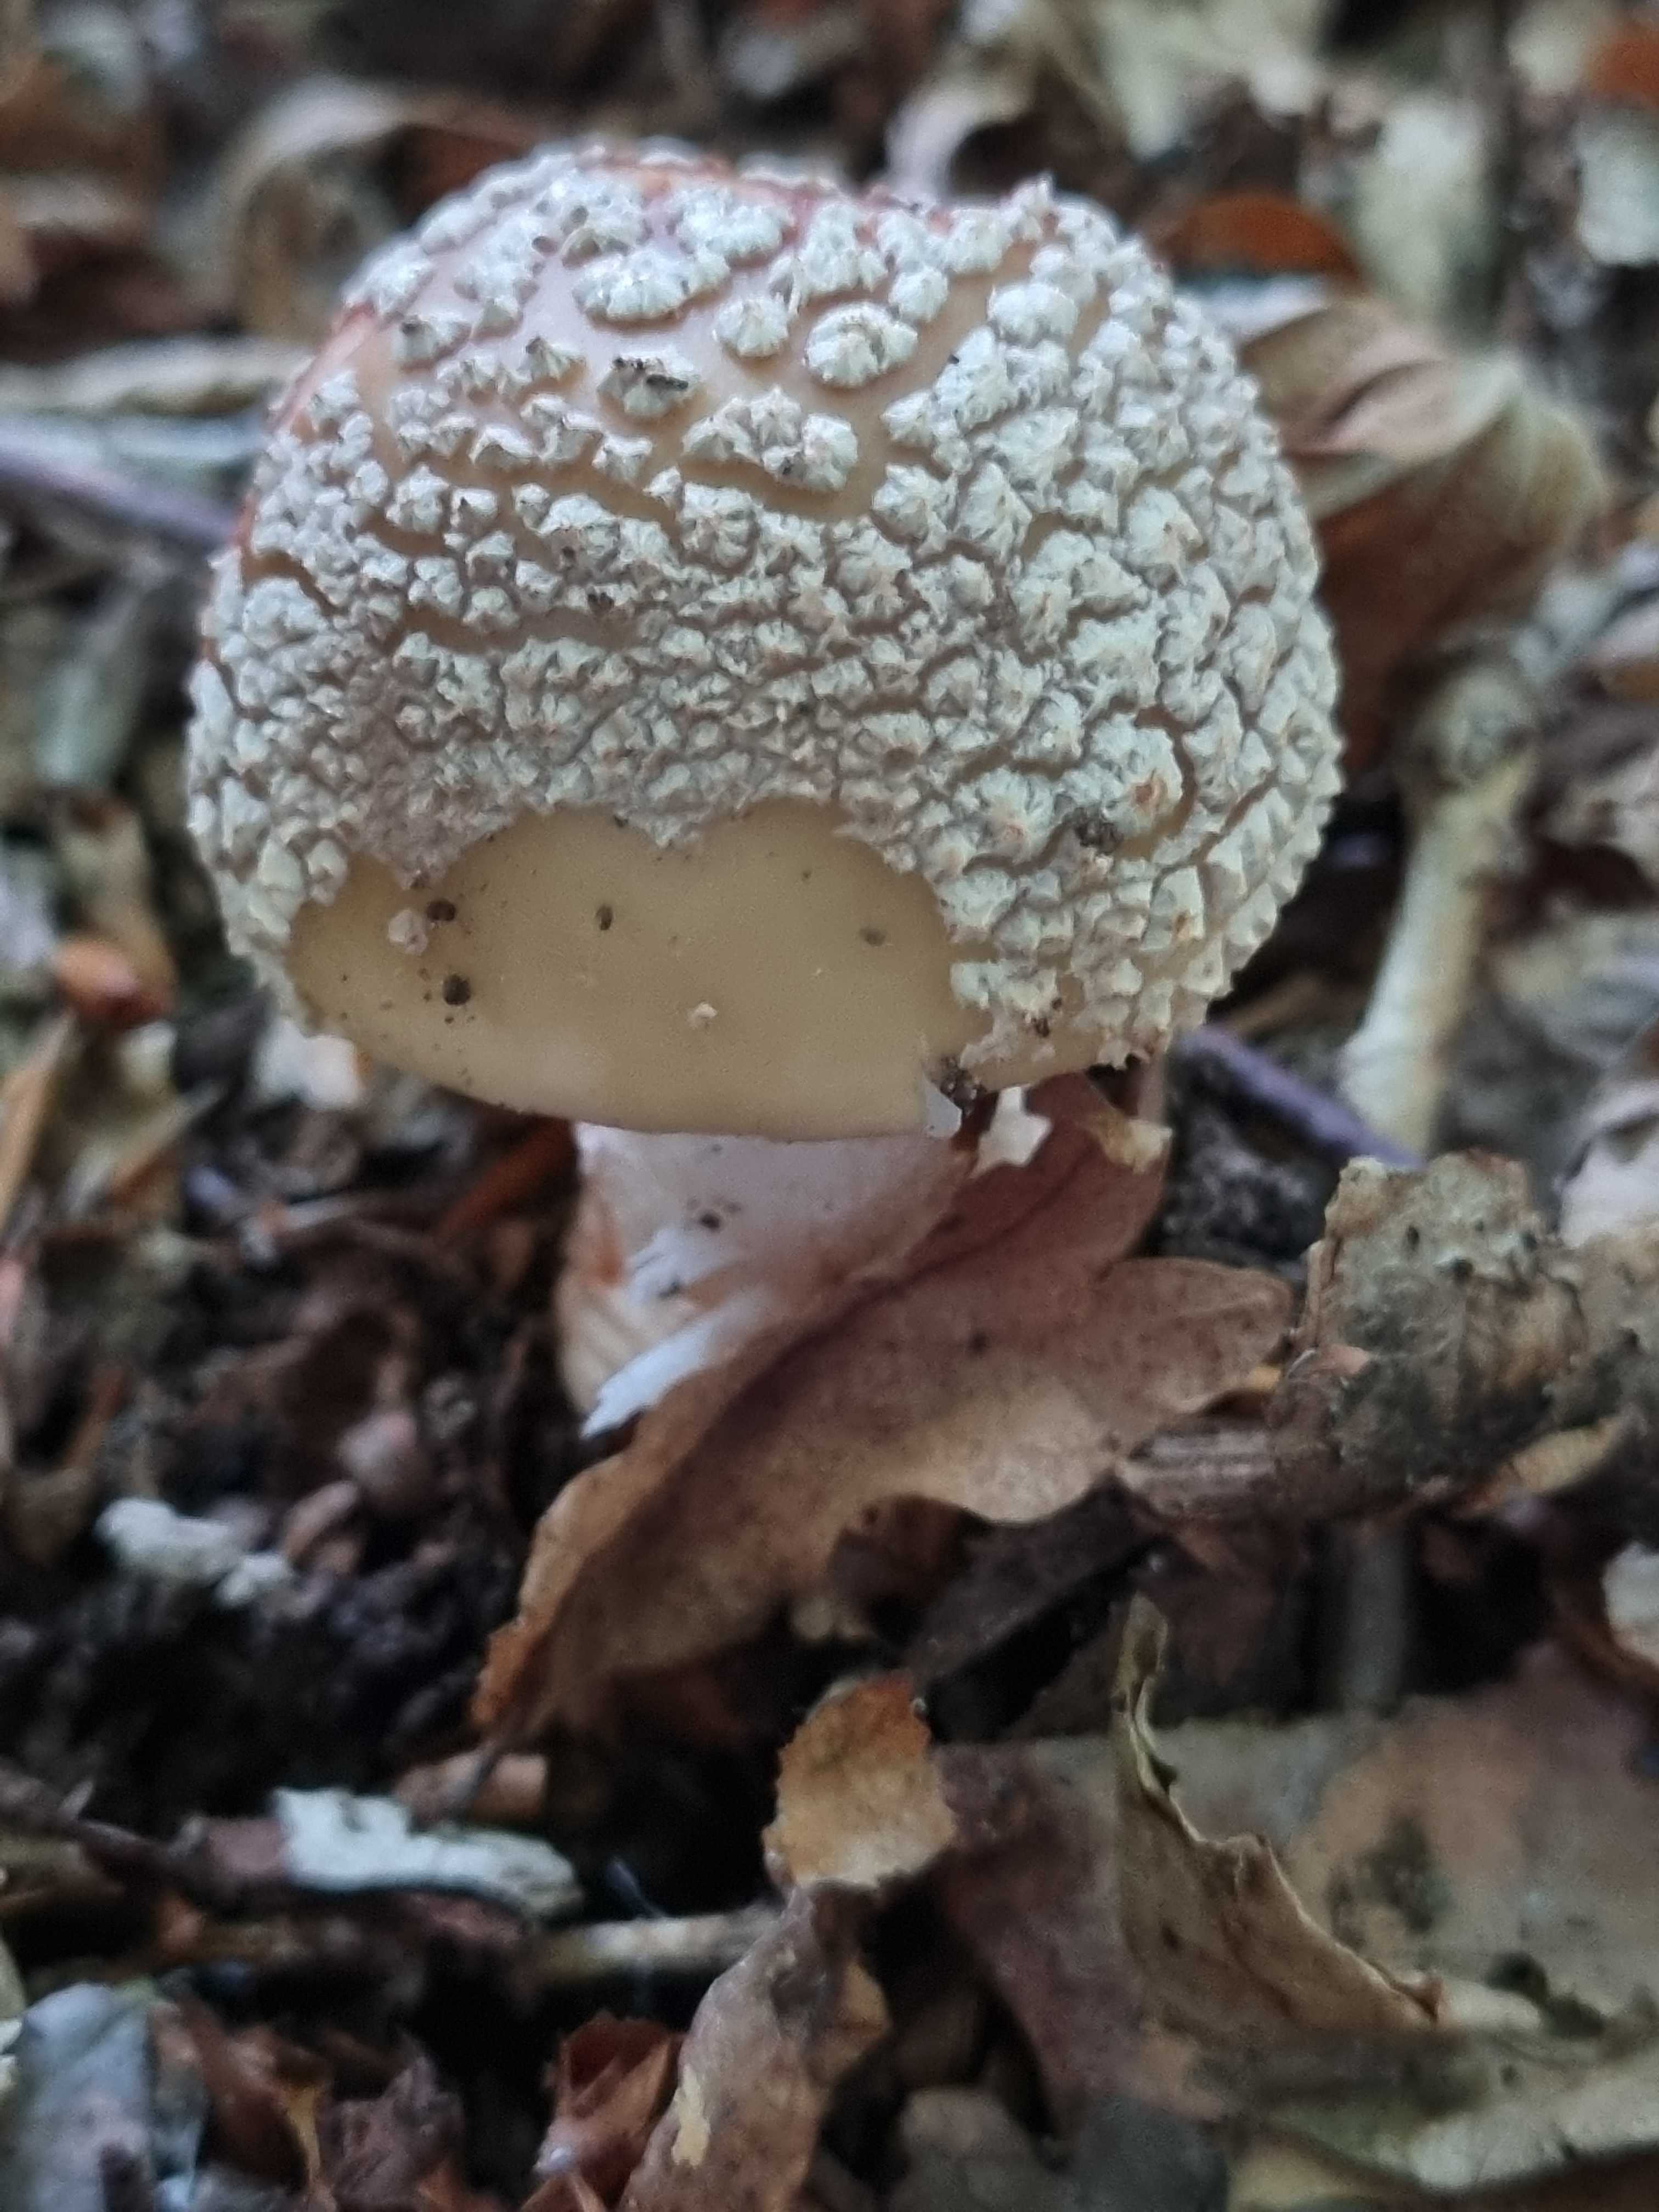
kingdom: Fungi
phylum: Basidiomycota
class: Agaricomycetes
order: Agaricales
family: Amanitaceae
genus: Amanita
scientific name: Amanita rubescens
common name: rødmende fluesvamp
